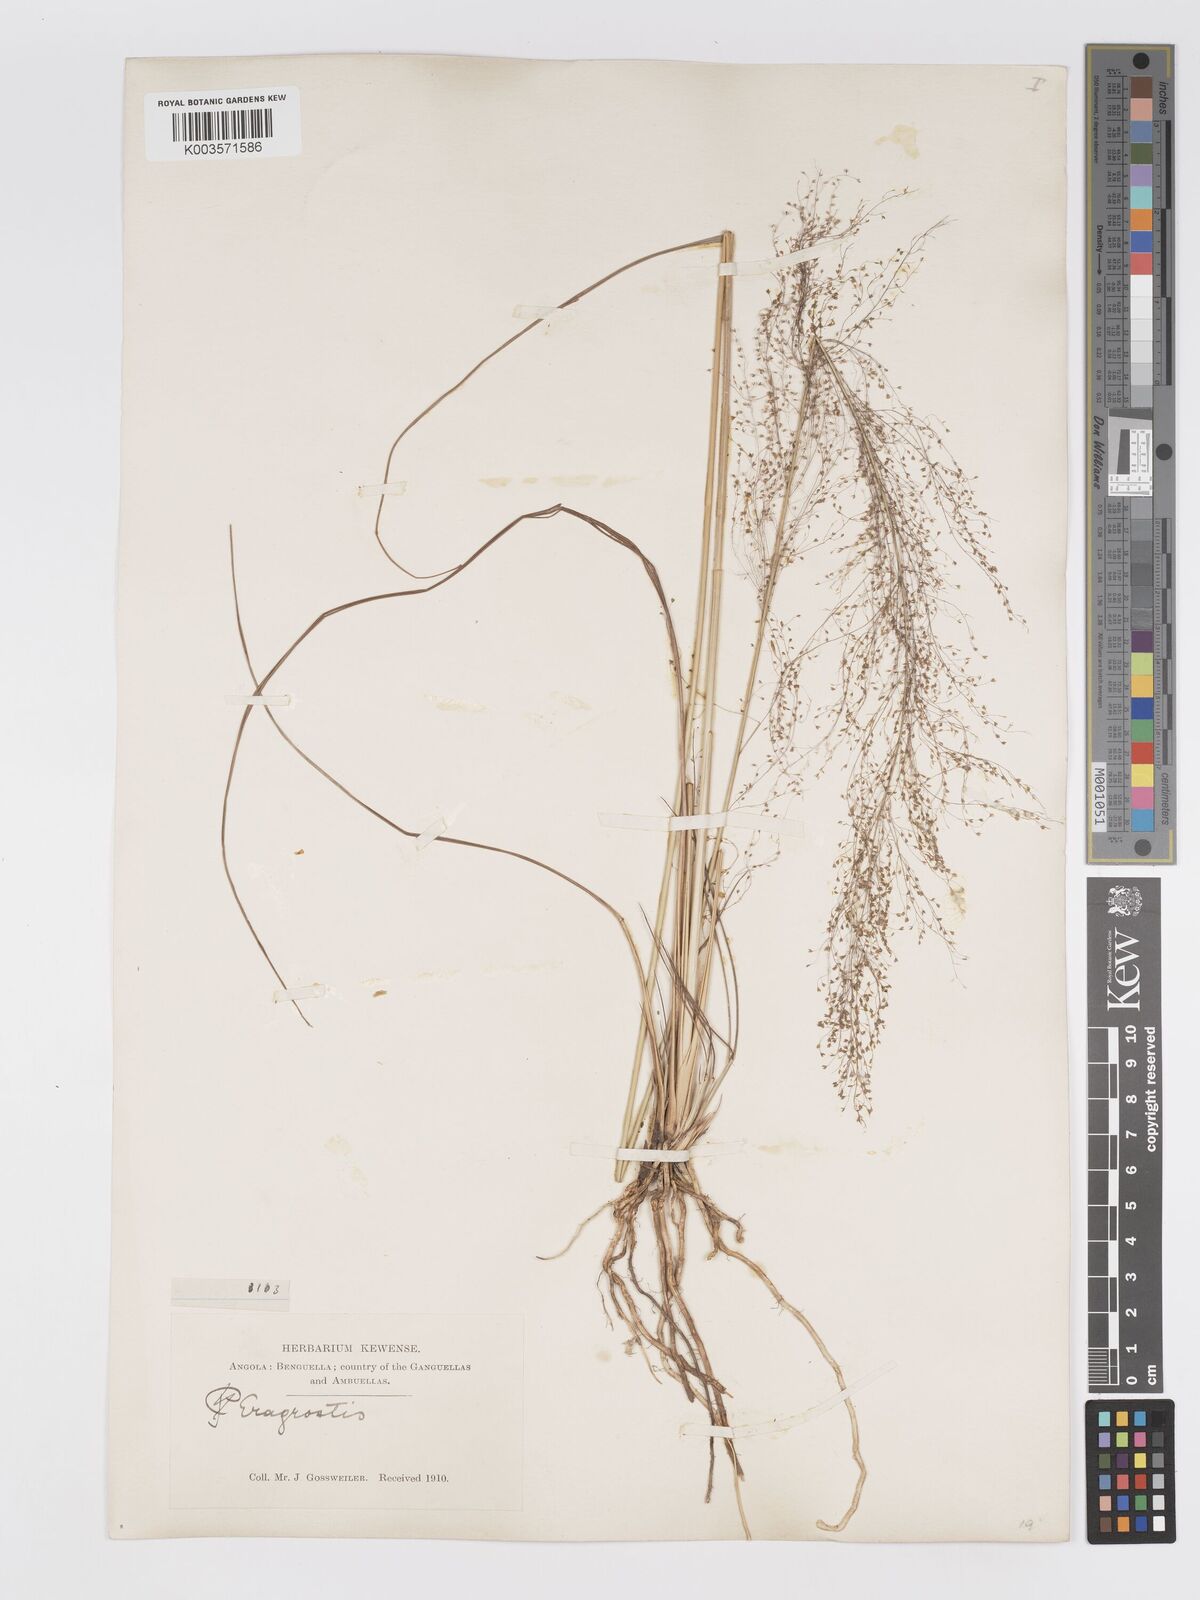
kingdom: Plantae
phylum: Tracheophyta
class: Liliopsida
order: Poales
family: Poaceae
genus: Eragrostis
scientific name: Eragrostis habrantha
